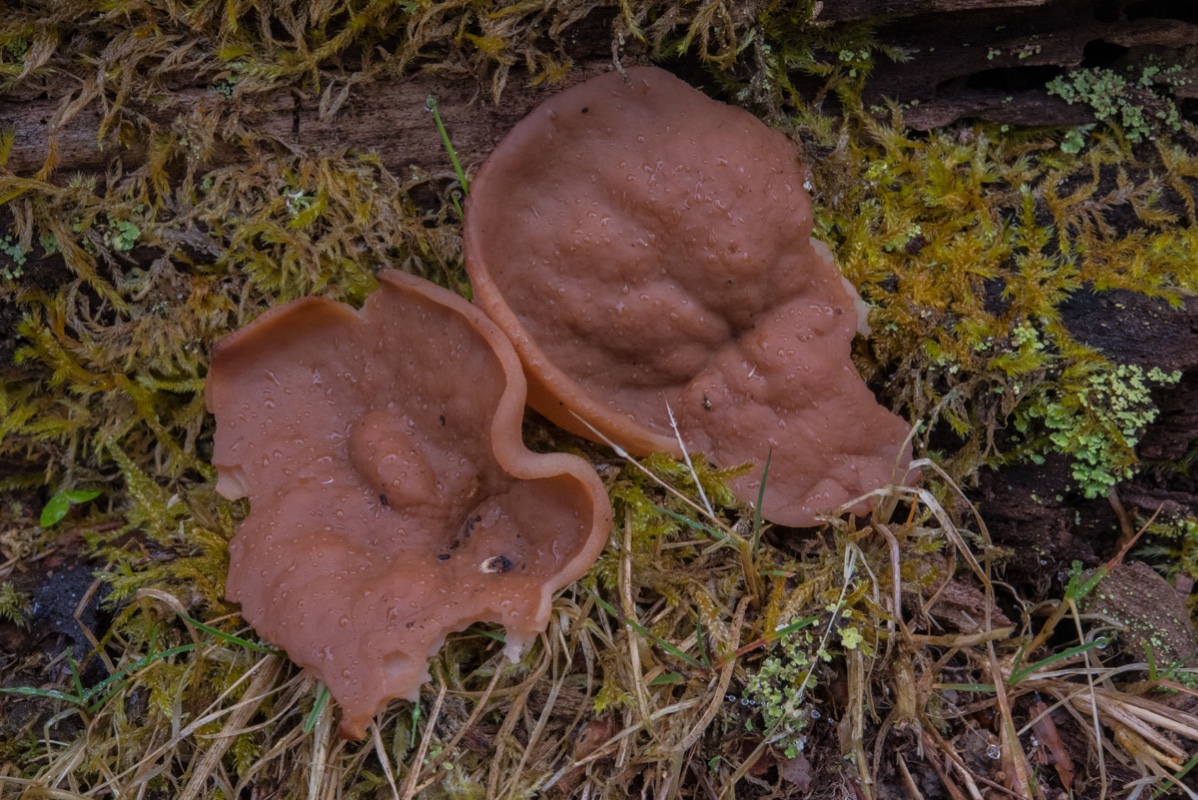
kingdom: Fungi
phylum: Ascomycota
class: Pezizomycetes
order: Pezizales
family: Discinaceae
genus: Discina
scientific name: Discina ancilis
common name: udbredt stenmorkel
